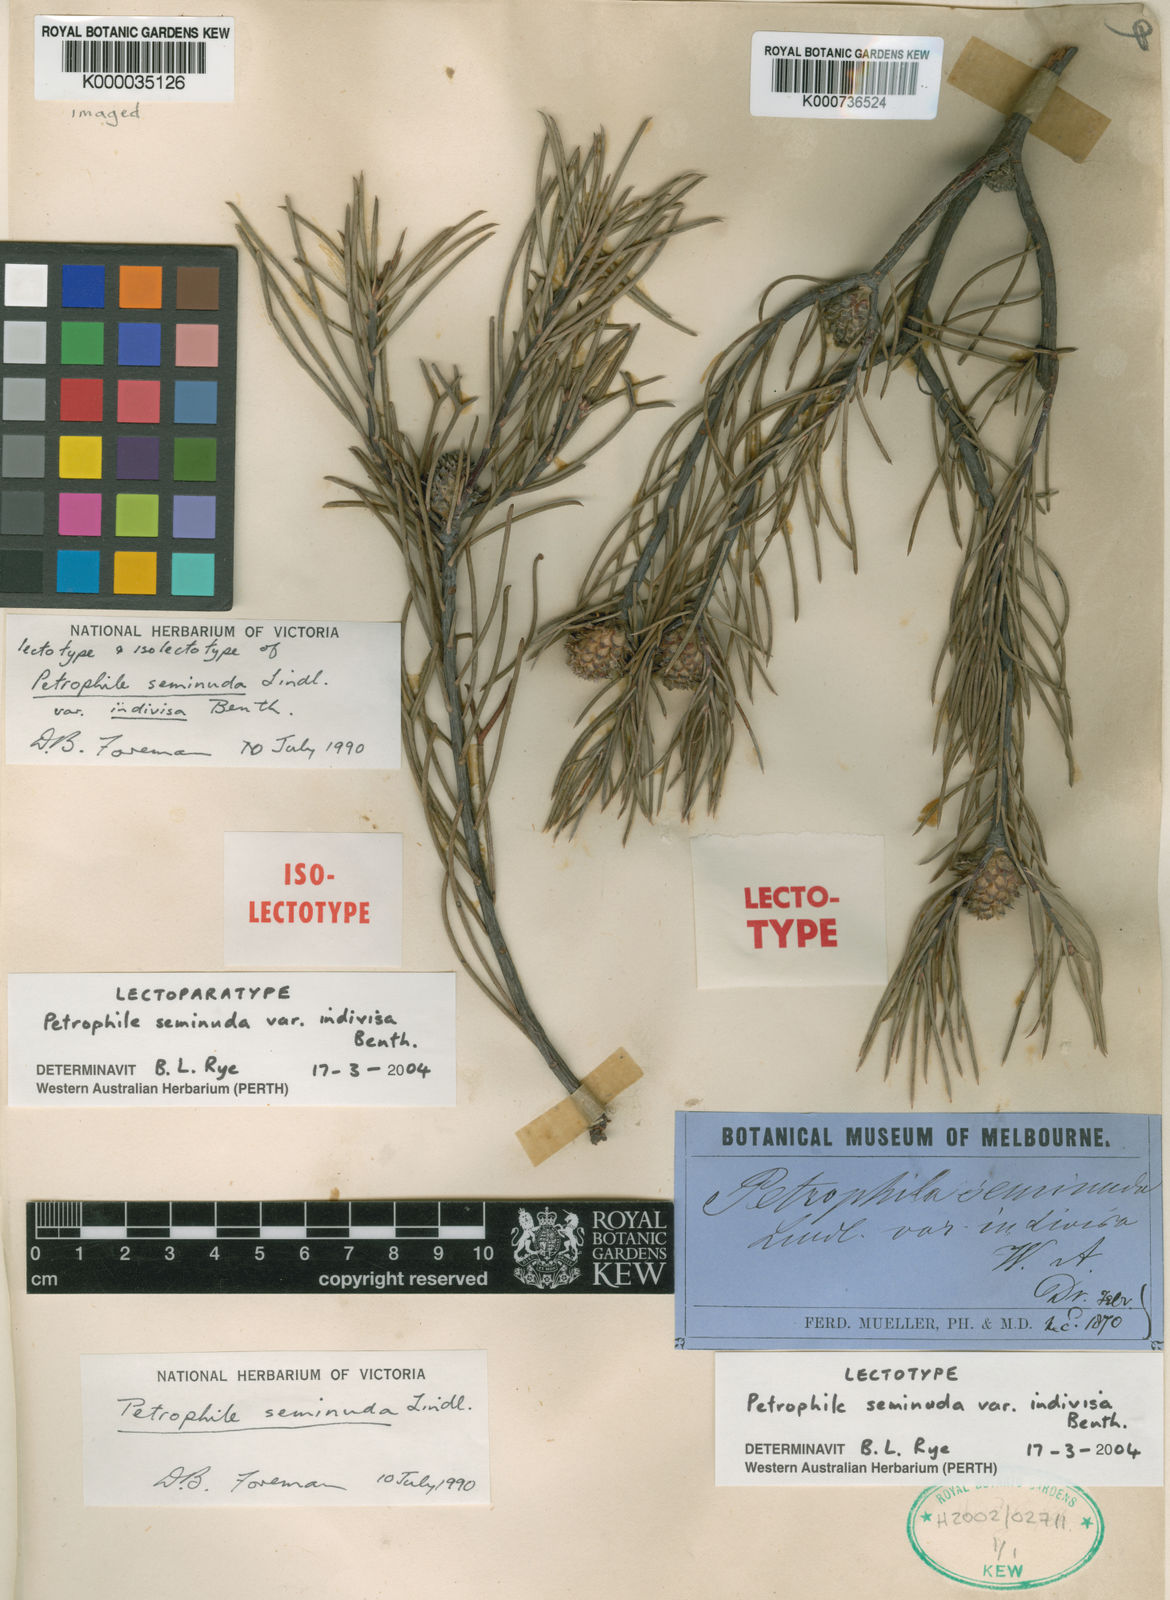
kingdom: Plantae
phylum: Tracheophyta
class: Magnoliopsida
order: Proteales
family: Proteaceae
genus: Petrophile
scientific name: Petrophile seminuda
